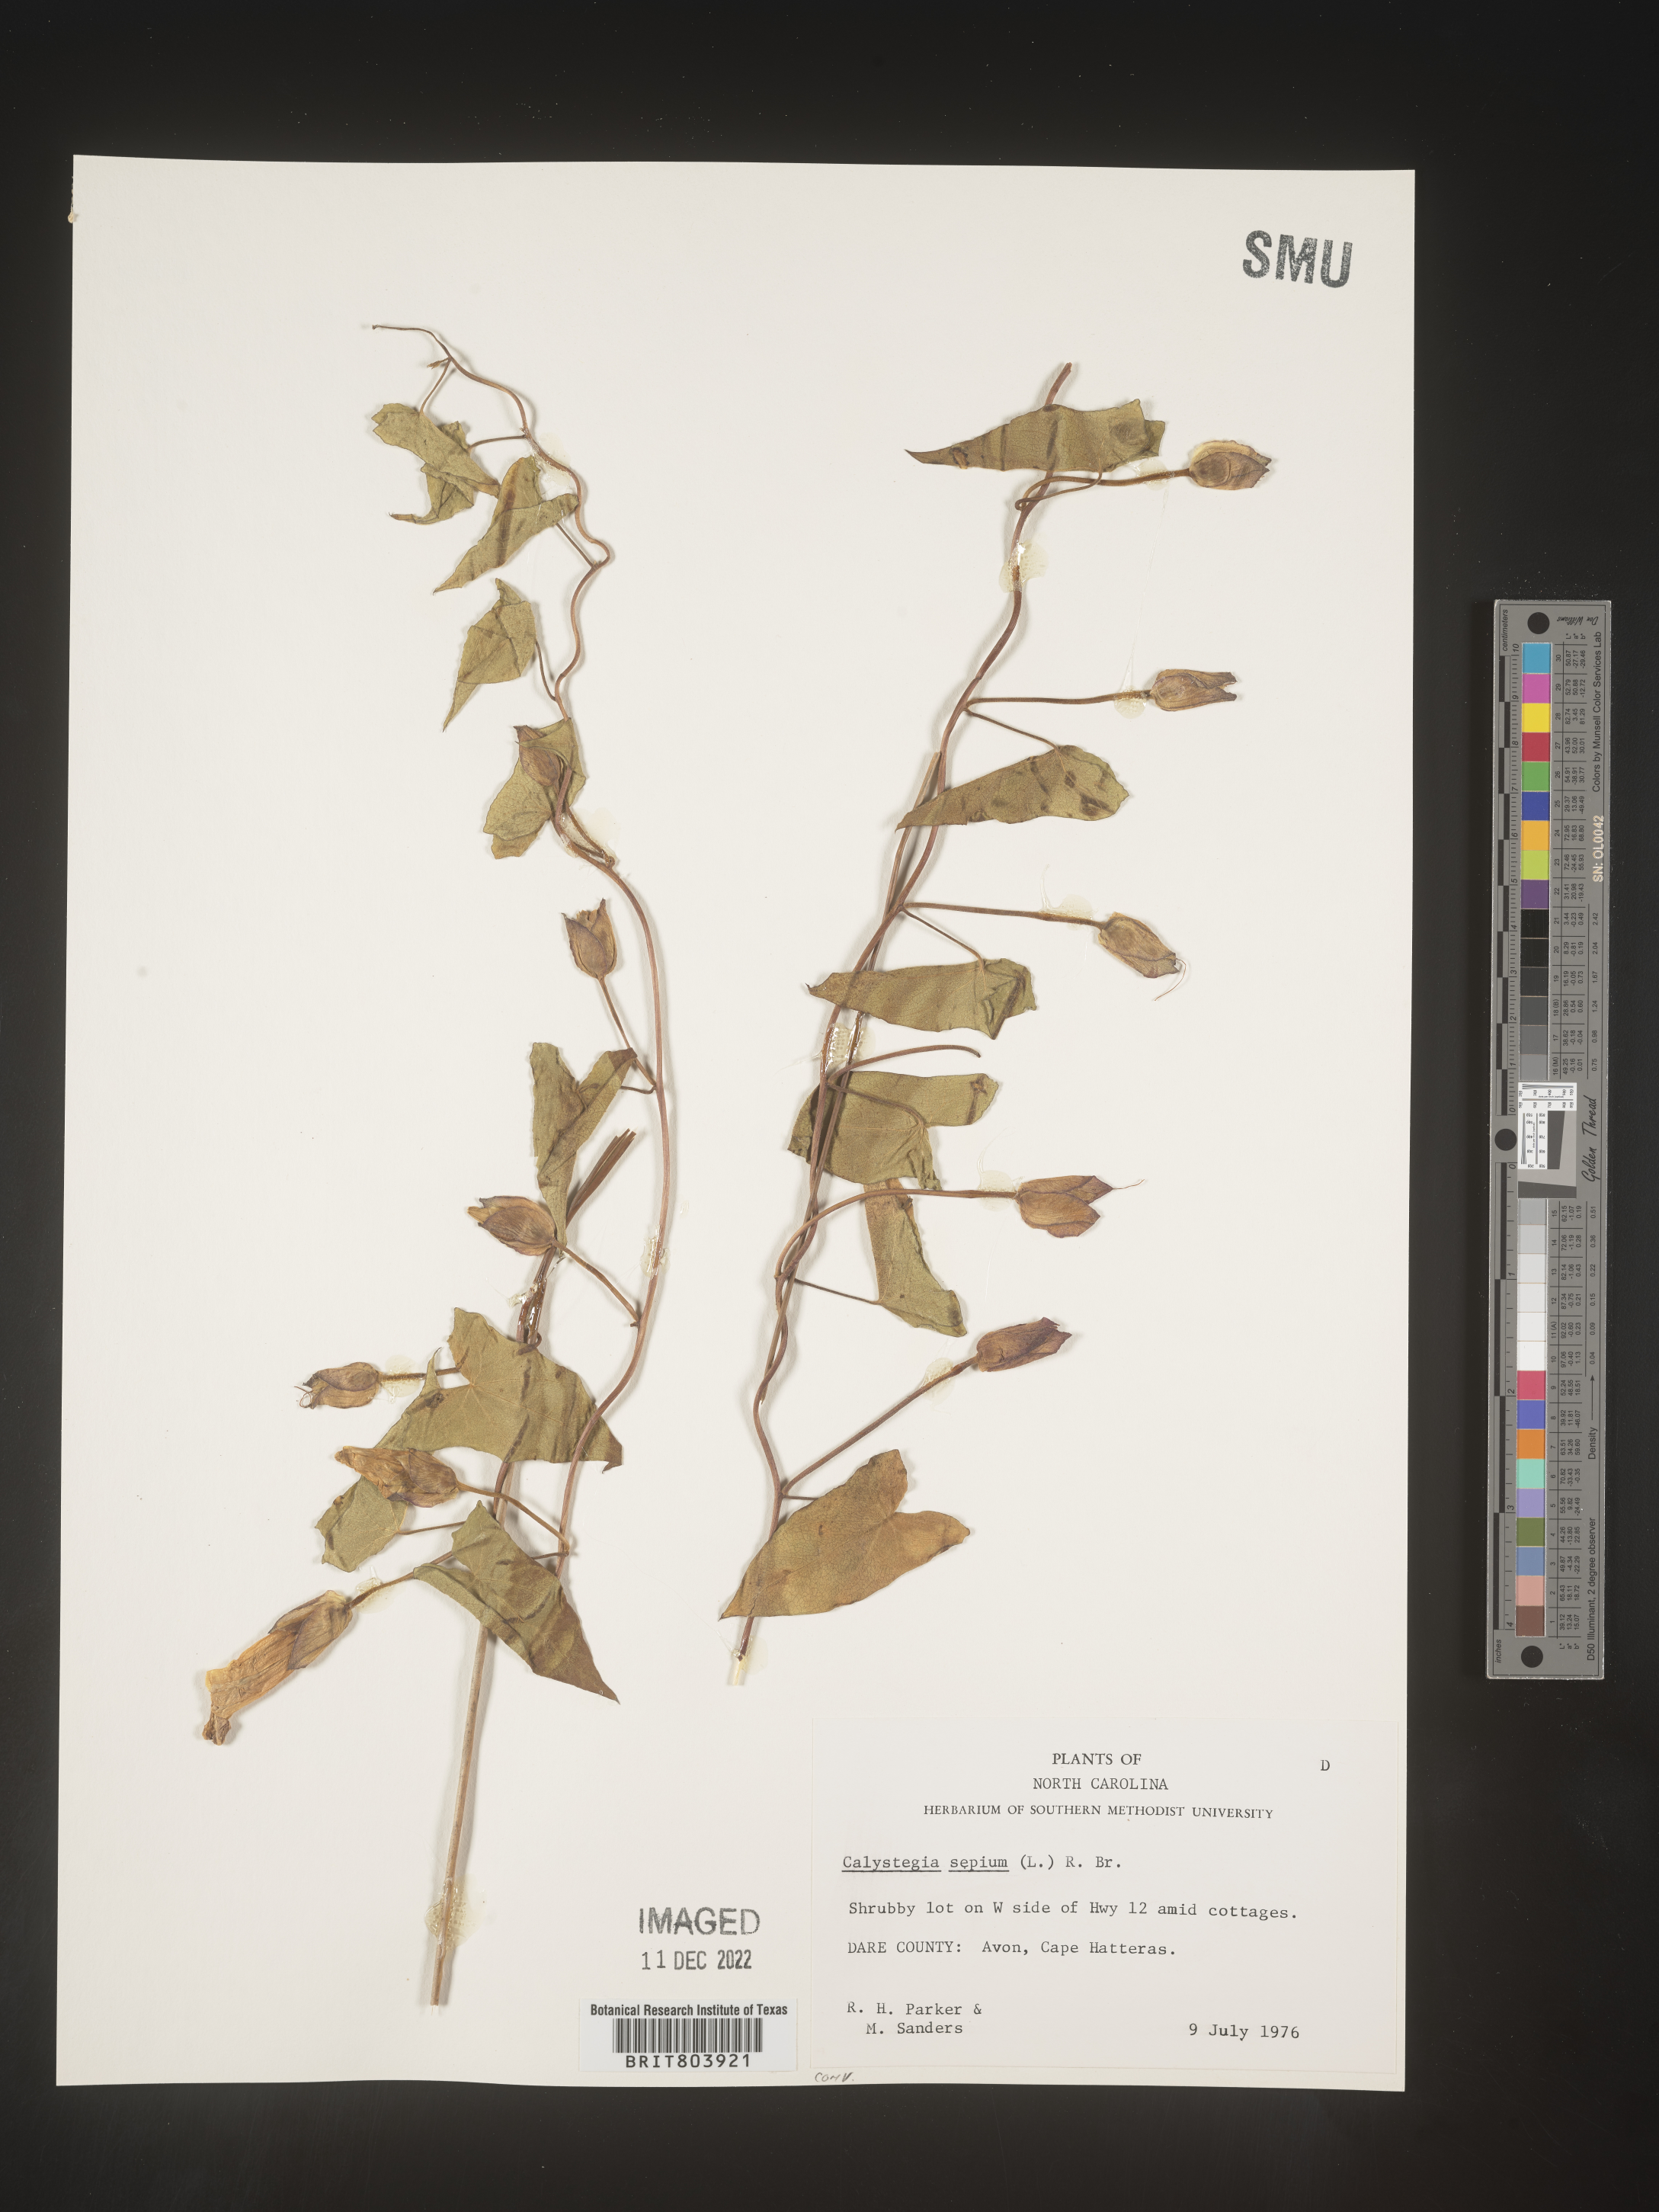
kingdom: Plantae
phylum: Tracheophyta
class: Magnoliopsida
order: Solanales
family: Convolvulaceae
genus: Calystegia
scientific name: Calystegia sepium
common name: Hedge bindweed
